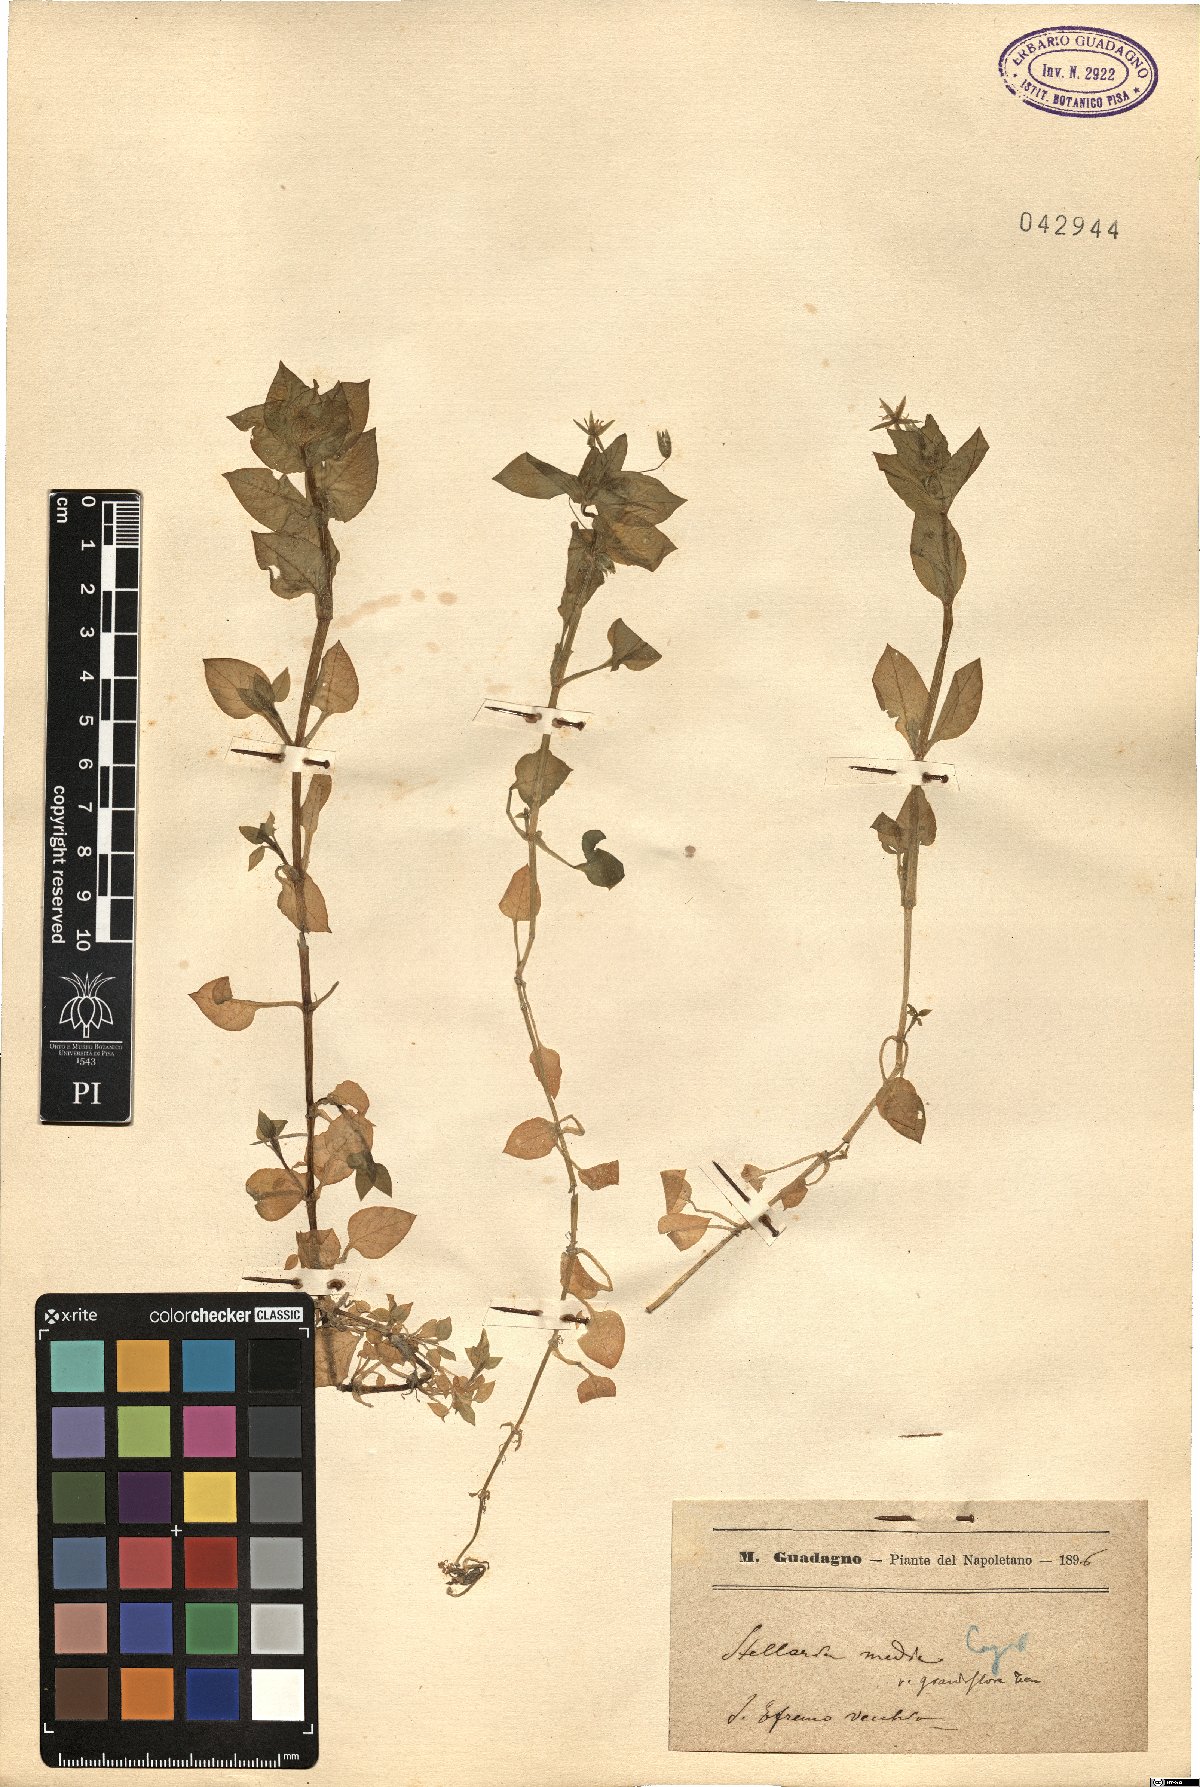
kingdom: Plantae
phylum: Tracheophyta
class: Magnoliopsida
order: Caryophyllales
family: Caryophyllaceae
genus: Stellaria
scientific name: Stellaria media
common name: Common chickweed
